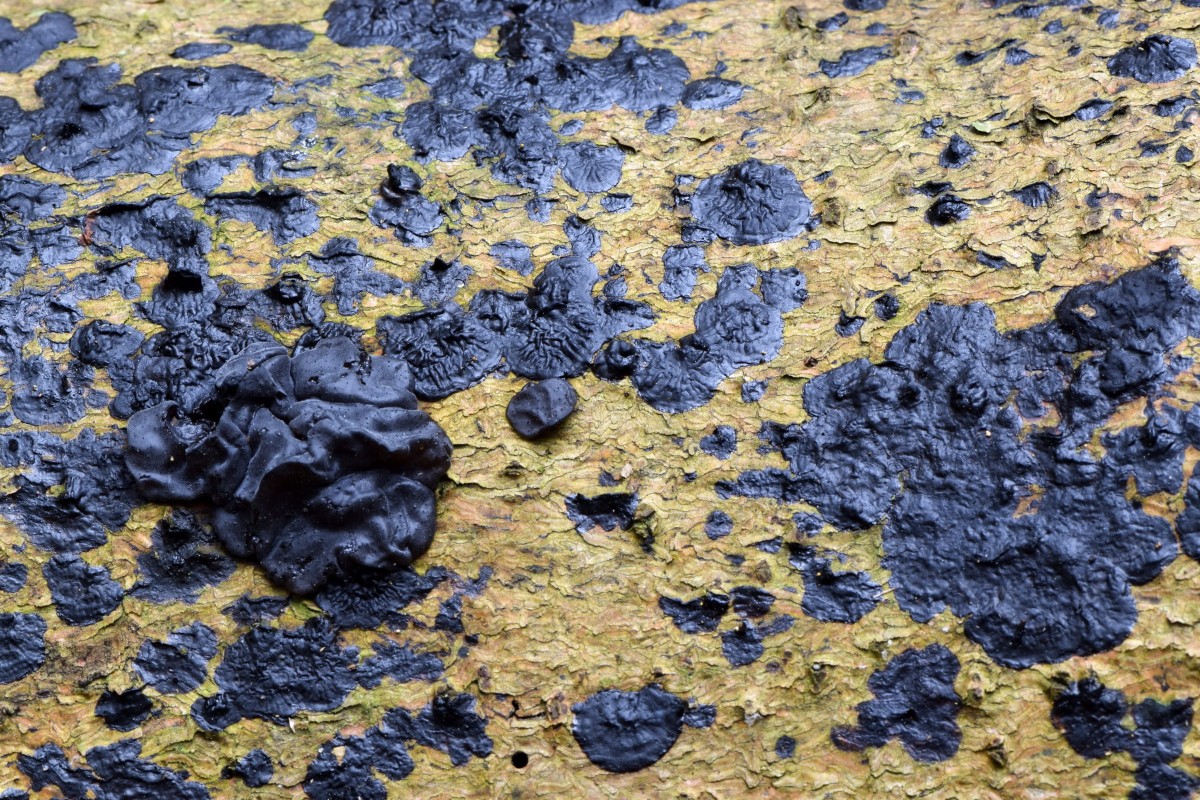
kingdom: Fungi
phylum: Basidiomycota
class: Agaricomycetes
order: Auriculariales
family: Auriculariaceae
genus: Exidia
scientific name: Exidia pithya
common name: gran-bævretop
